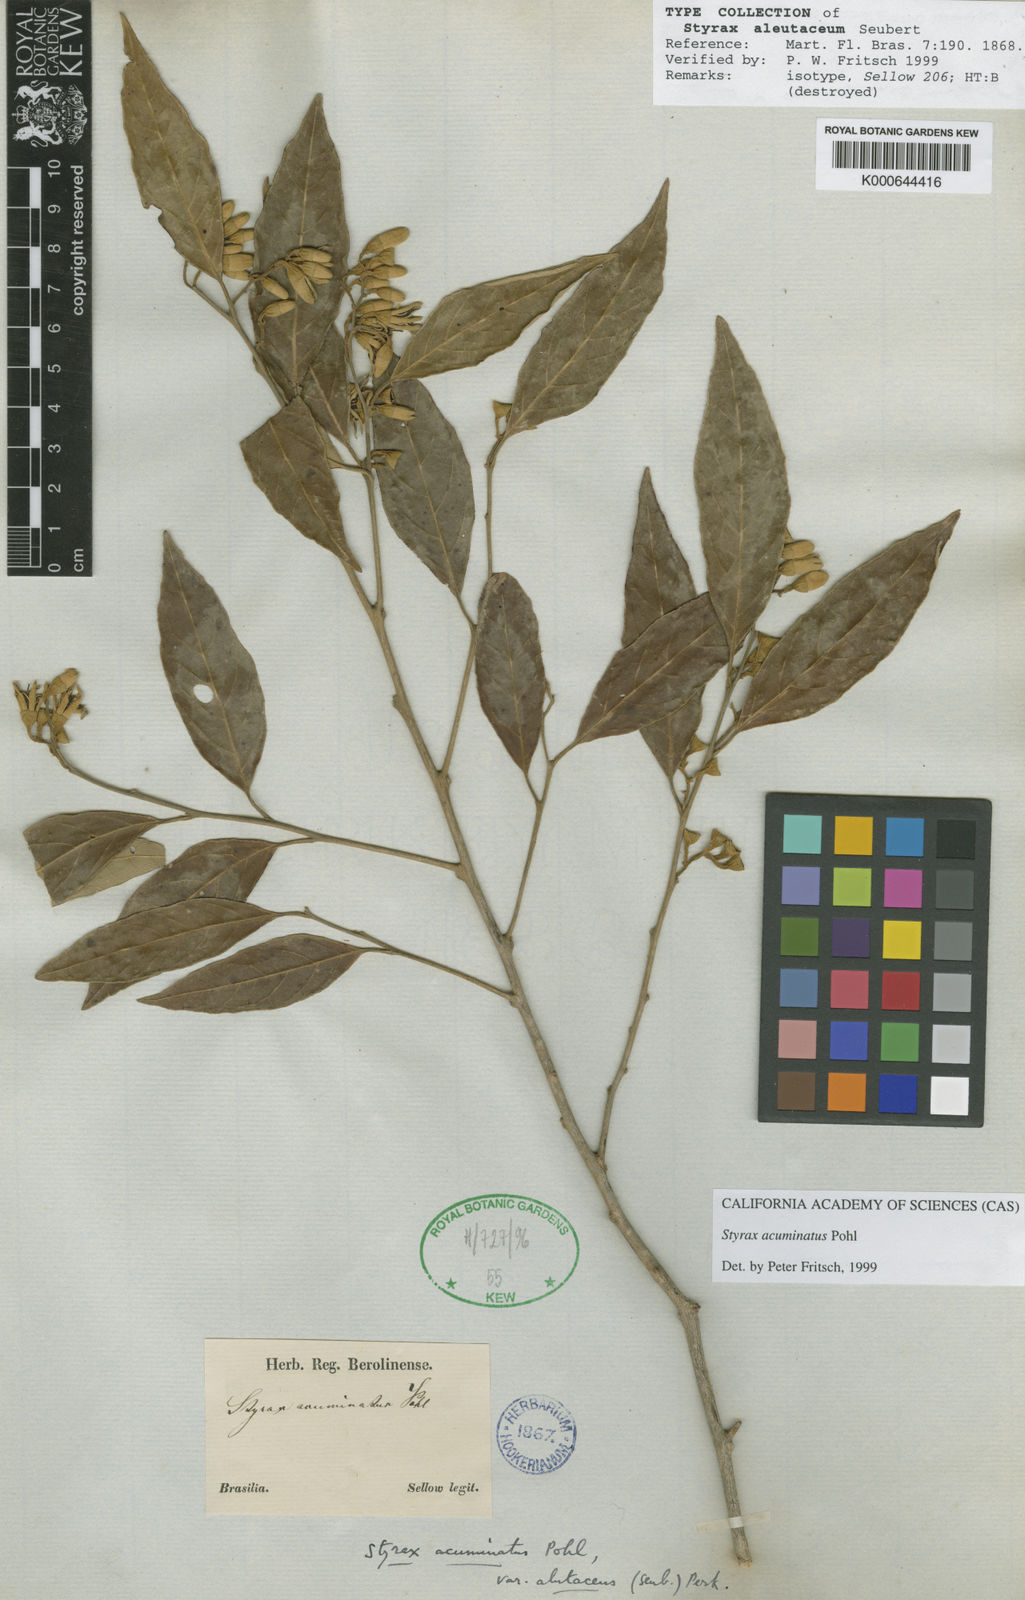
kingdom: Plantae
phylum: Tracheophyta
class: Magnoliopsida
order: Ericales
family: Styracaceae
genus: Styrax
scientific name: Styrax acuminatus
